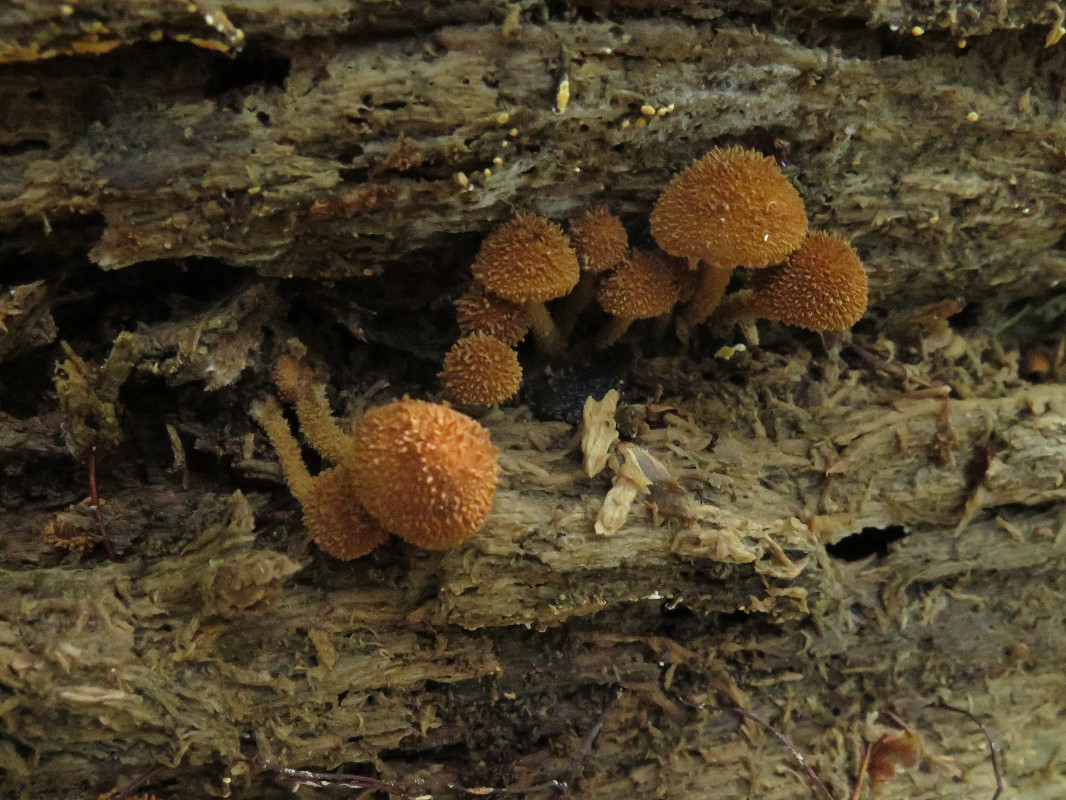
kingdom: Fungi
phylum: Basidiomycota
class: Agaricomycetes
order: Agaricales
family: Tubariaceae
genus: Flammulaster
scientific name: Flammulaster muricatus
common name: pigget grynskælhat
